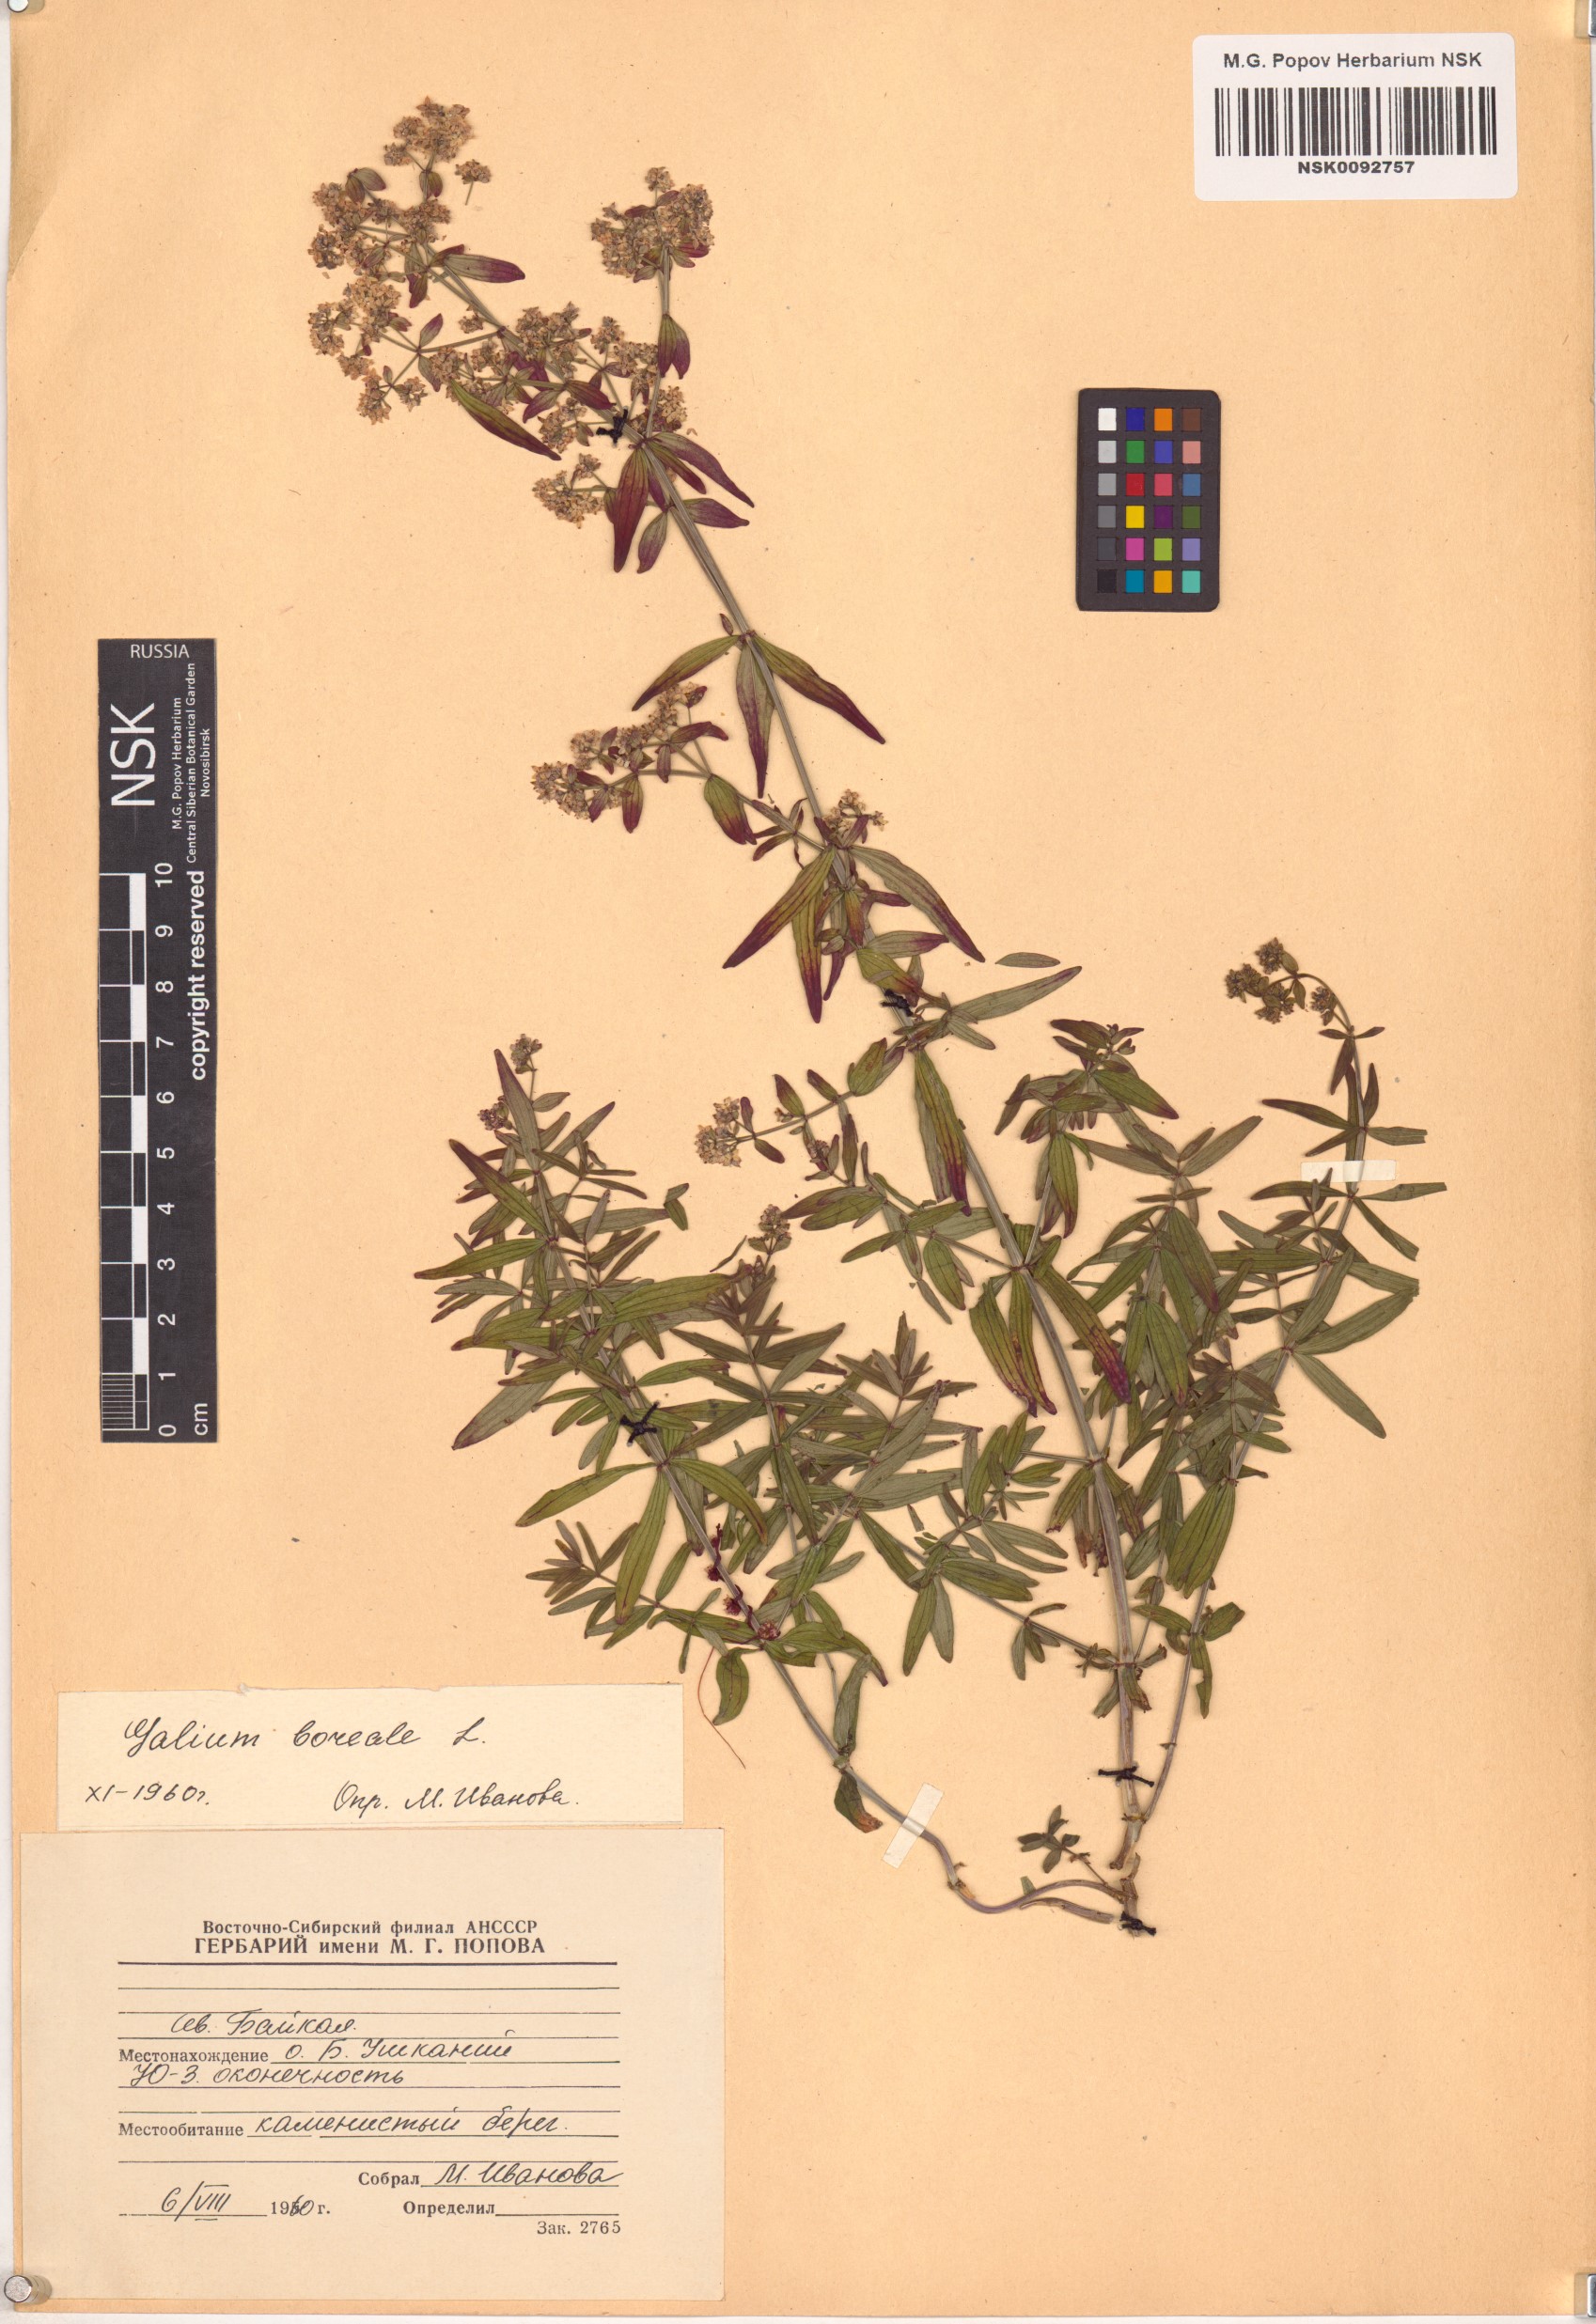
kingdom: Plantae
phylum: Tracheophyta
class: Magnoliopsida
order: Gentianales
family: Rubiaceae
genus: Galium
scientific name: Galium boreale
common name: Northern bedstraw
